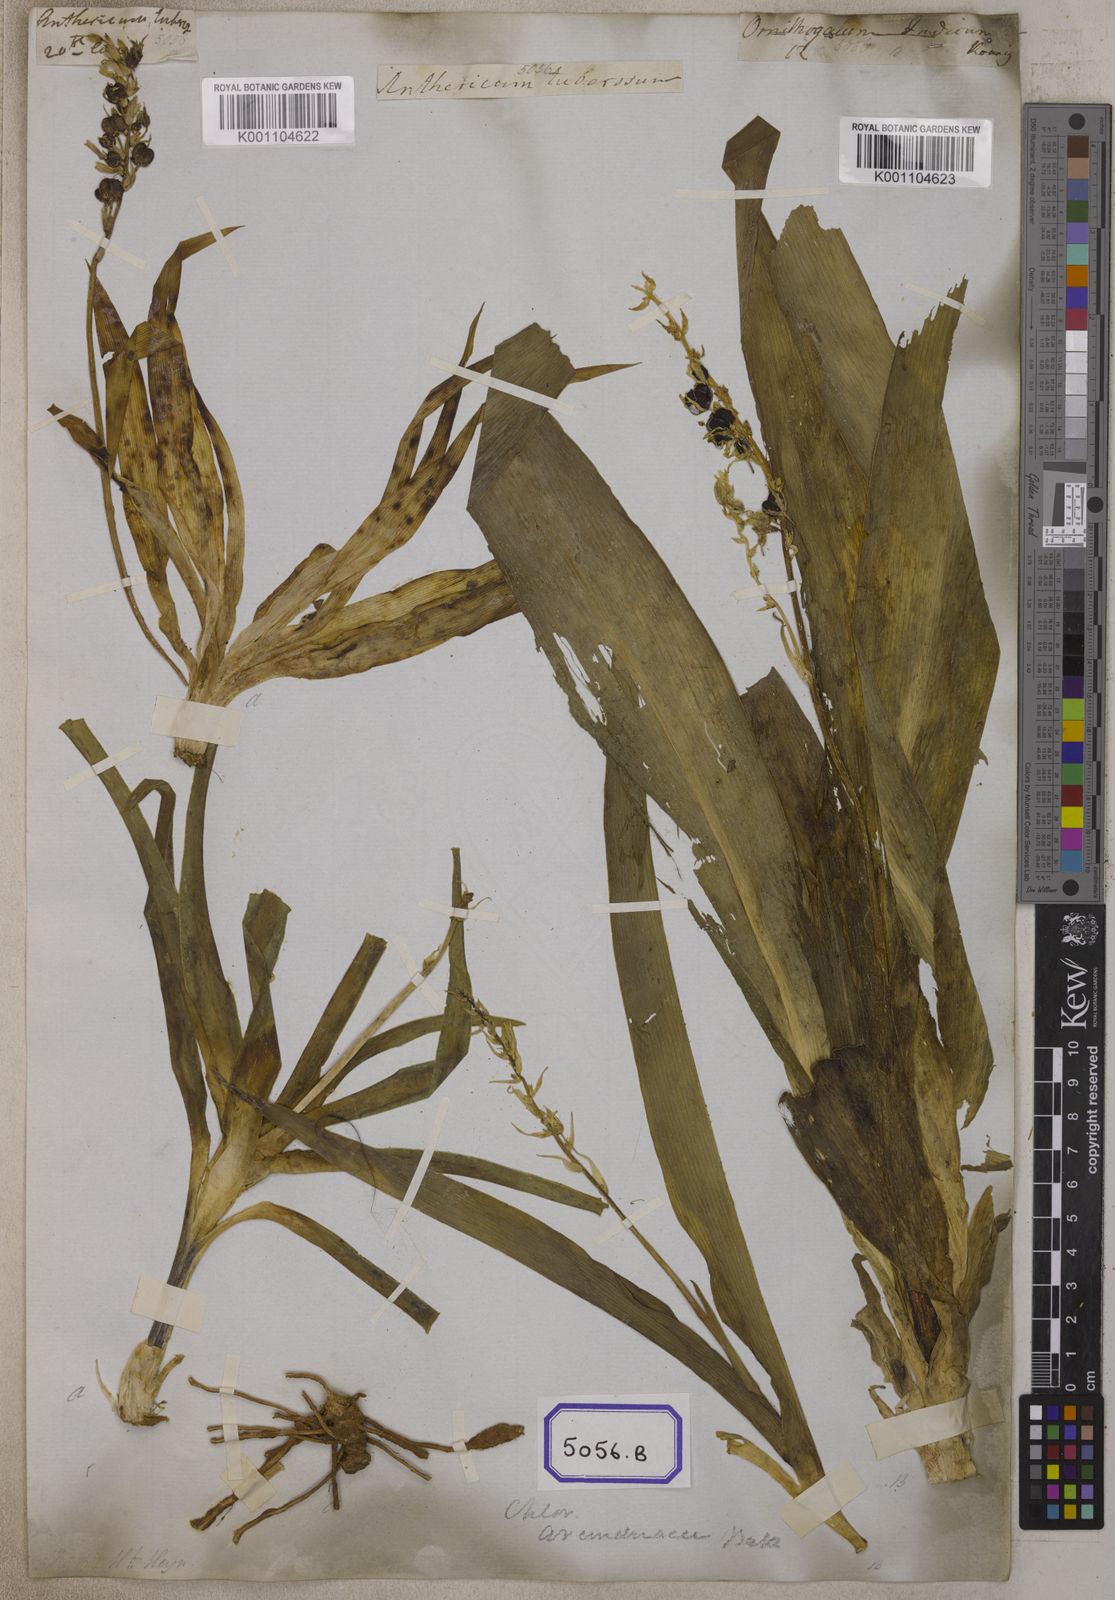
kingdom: Plantae
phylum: Tracheophyta
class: Liliopsida
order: Asparagales
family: Iridaceae
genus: Phalangium
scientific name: Phalangium
